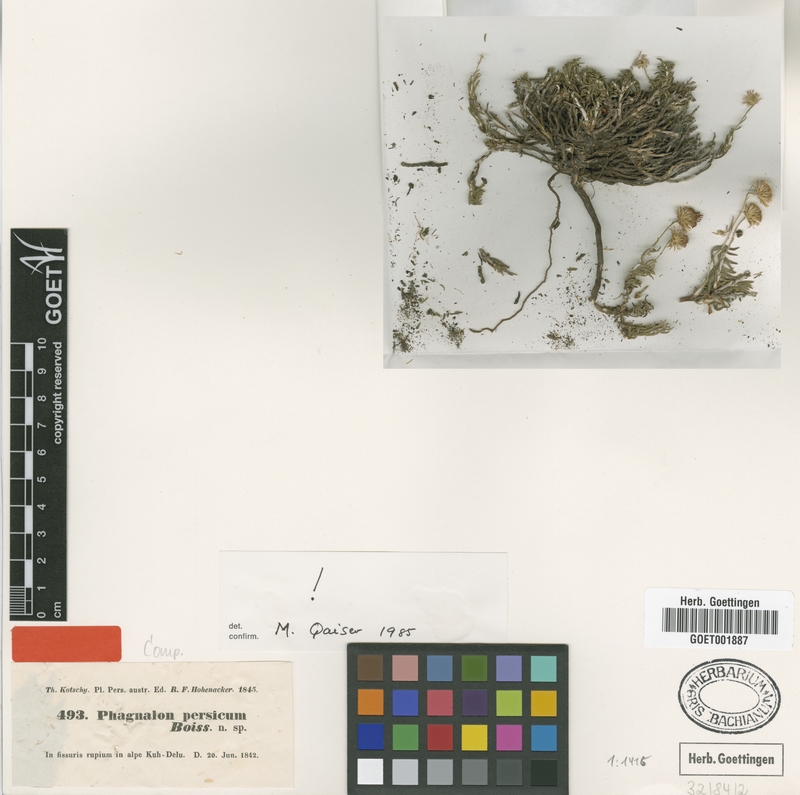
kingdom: Plantae
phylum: Tracheophyta
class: Magnoliopsida
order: Asterales
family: Asteraceae
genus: Phagnalon
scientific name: Phagnalon persicum
